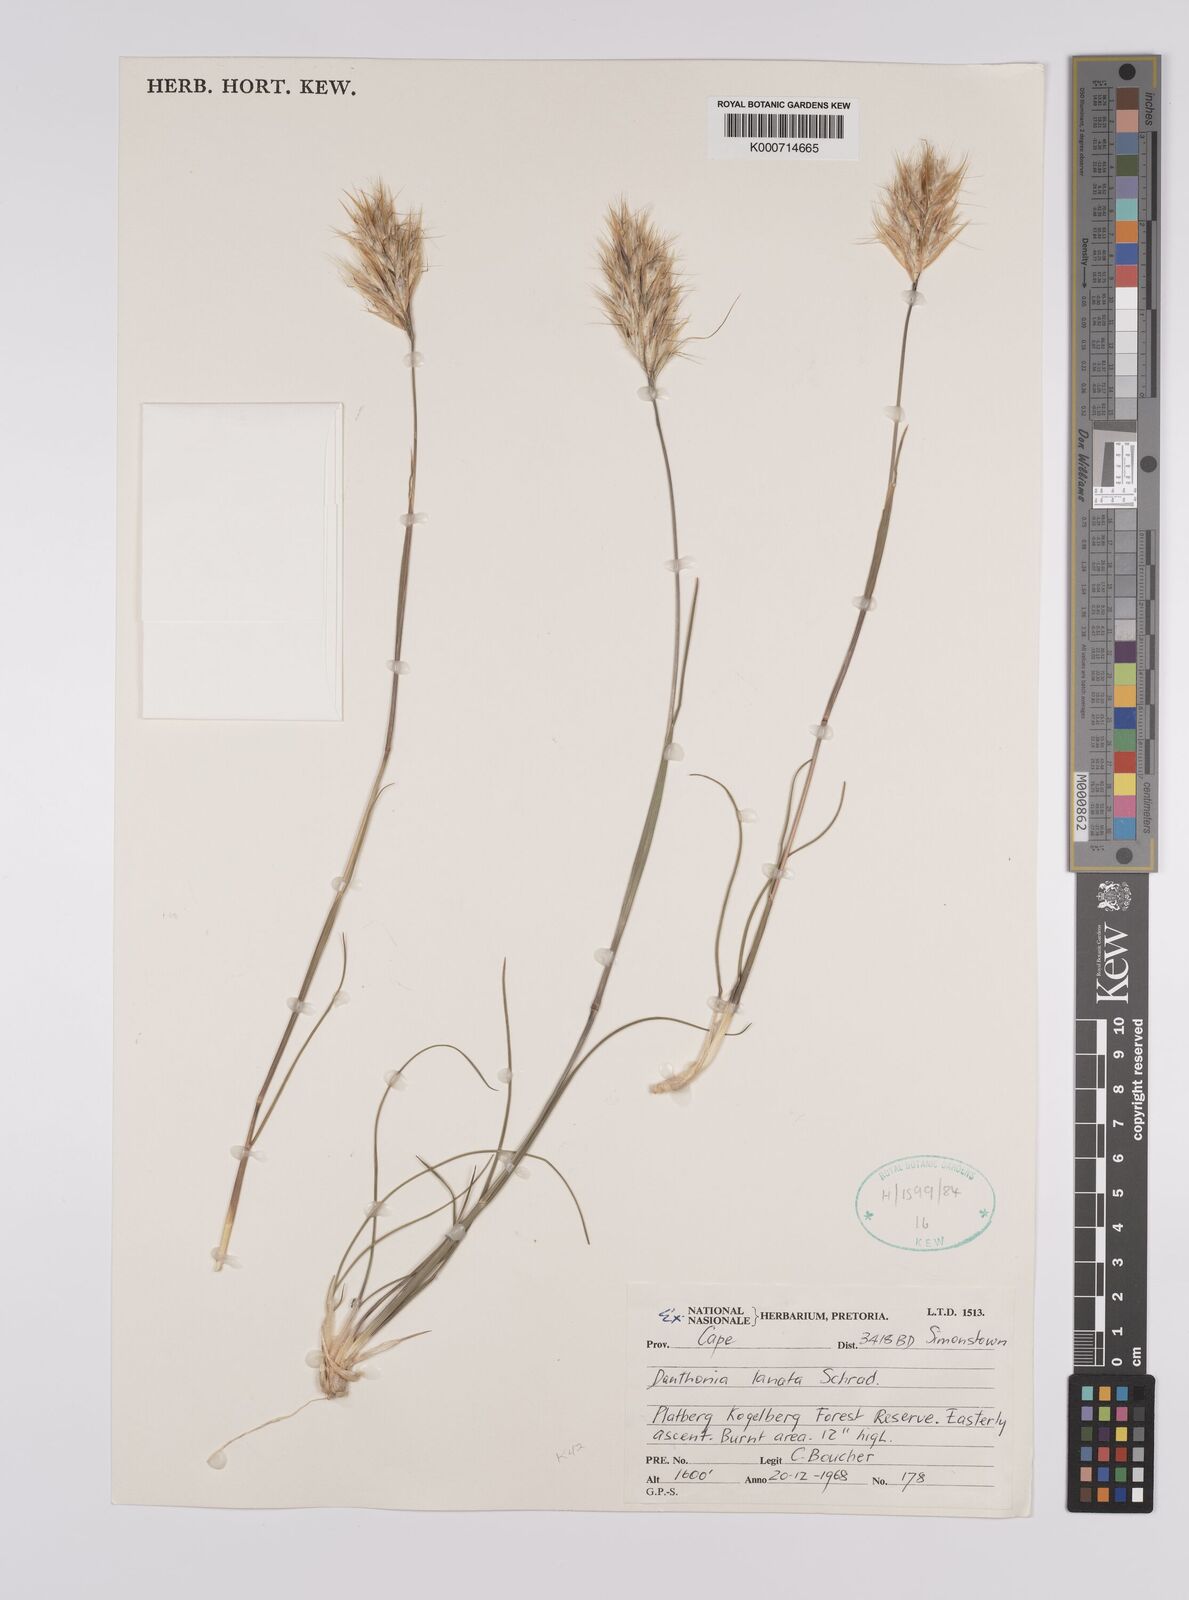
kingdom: Plantae
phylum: Tracheophyta
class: Liliopsida
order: Poales
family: Poaceae
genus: Rytidosperma
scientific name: Rytidosperma
